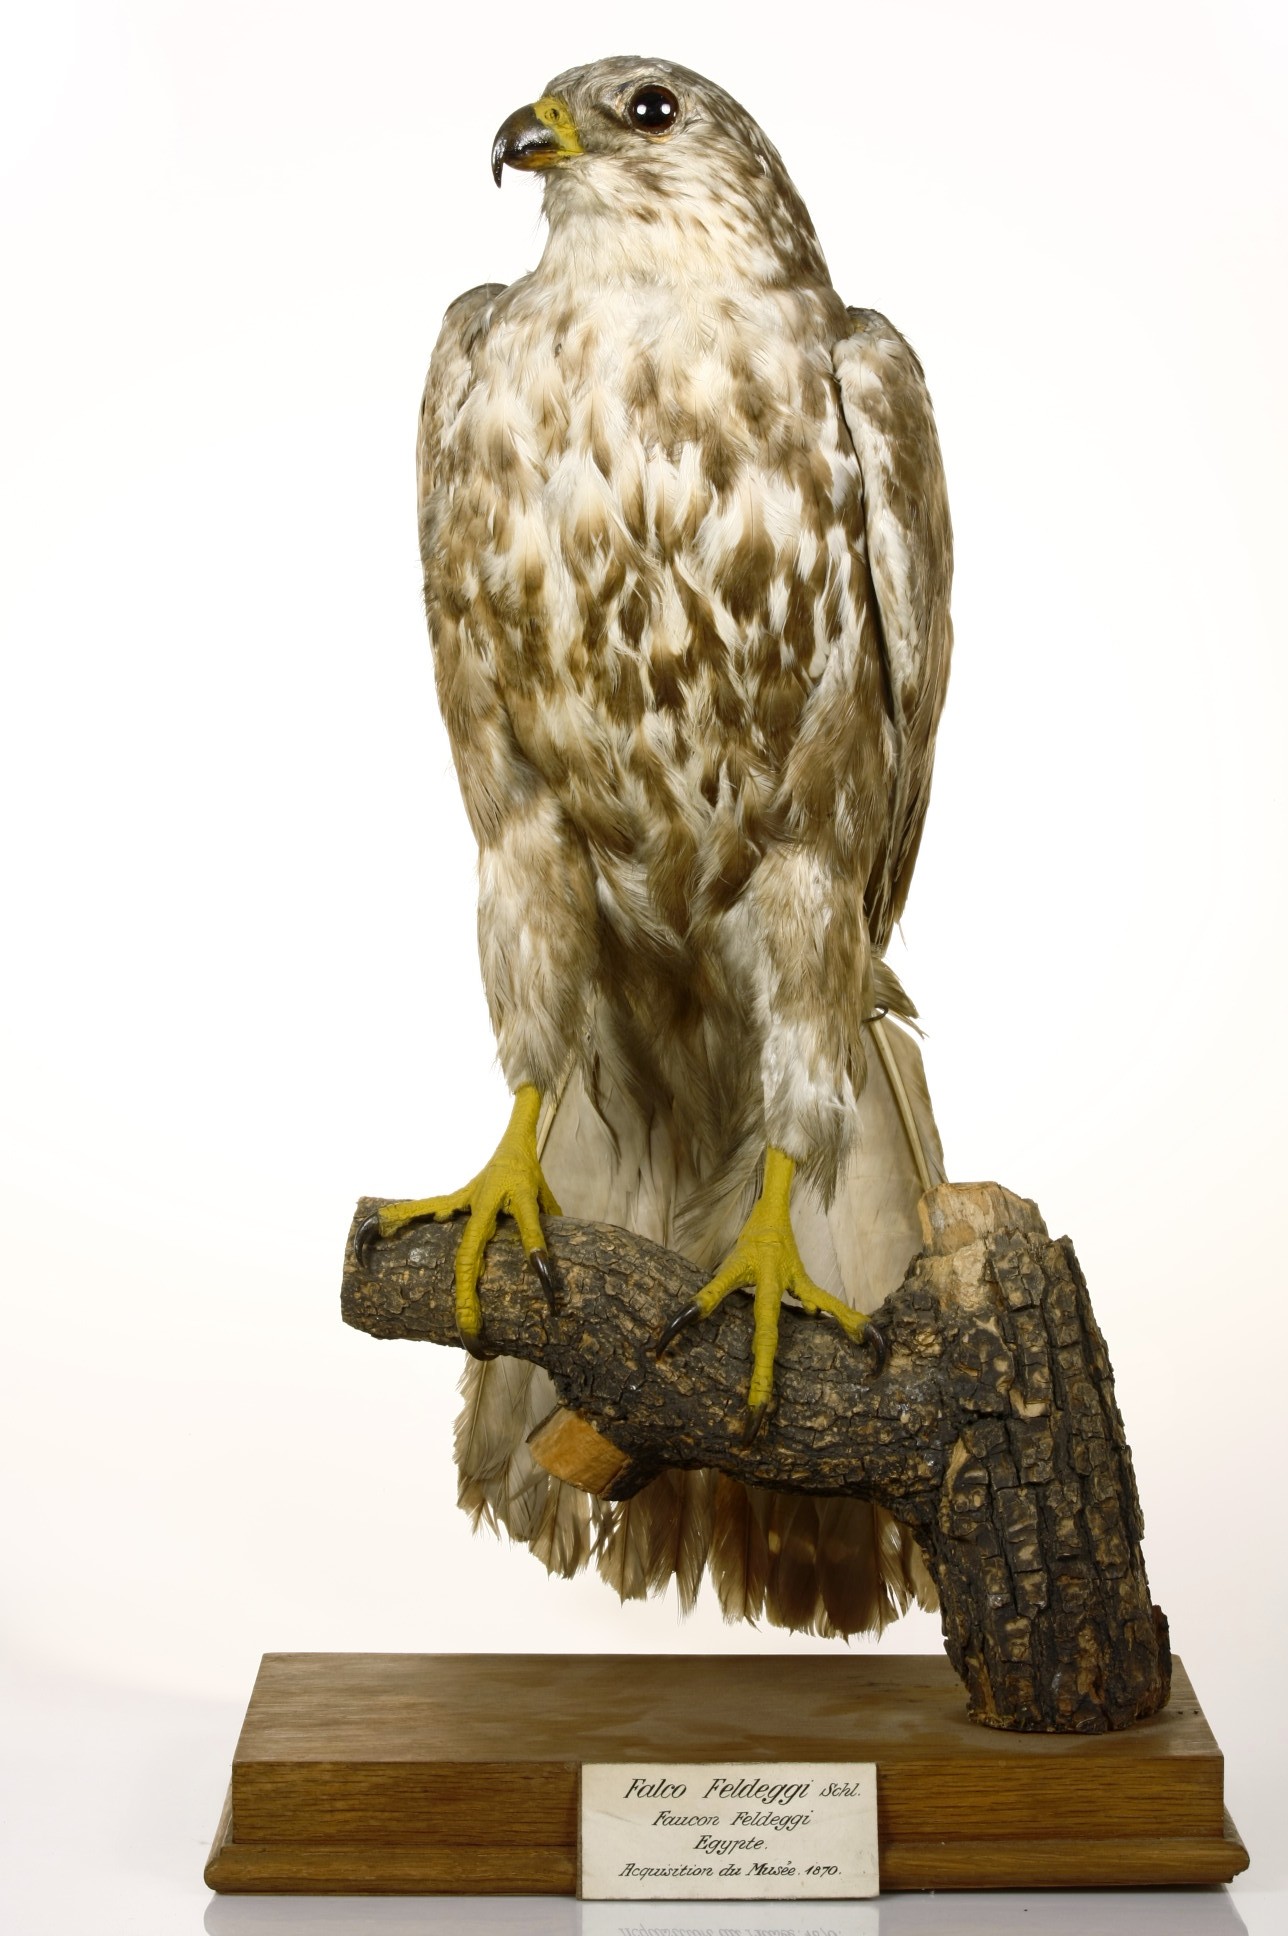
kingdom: Animalia
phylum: Chordata
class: Aves
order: Falconiformes
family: Falconidae
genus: Falco
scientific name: Falco cherrug
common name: Saker falcon
